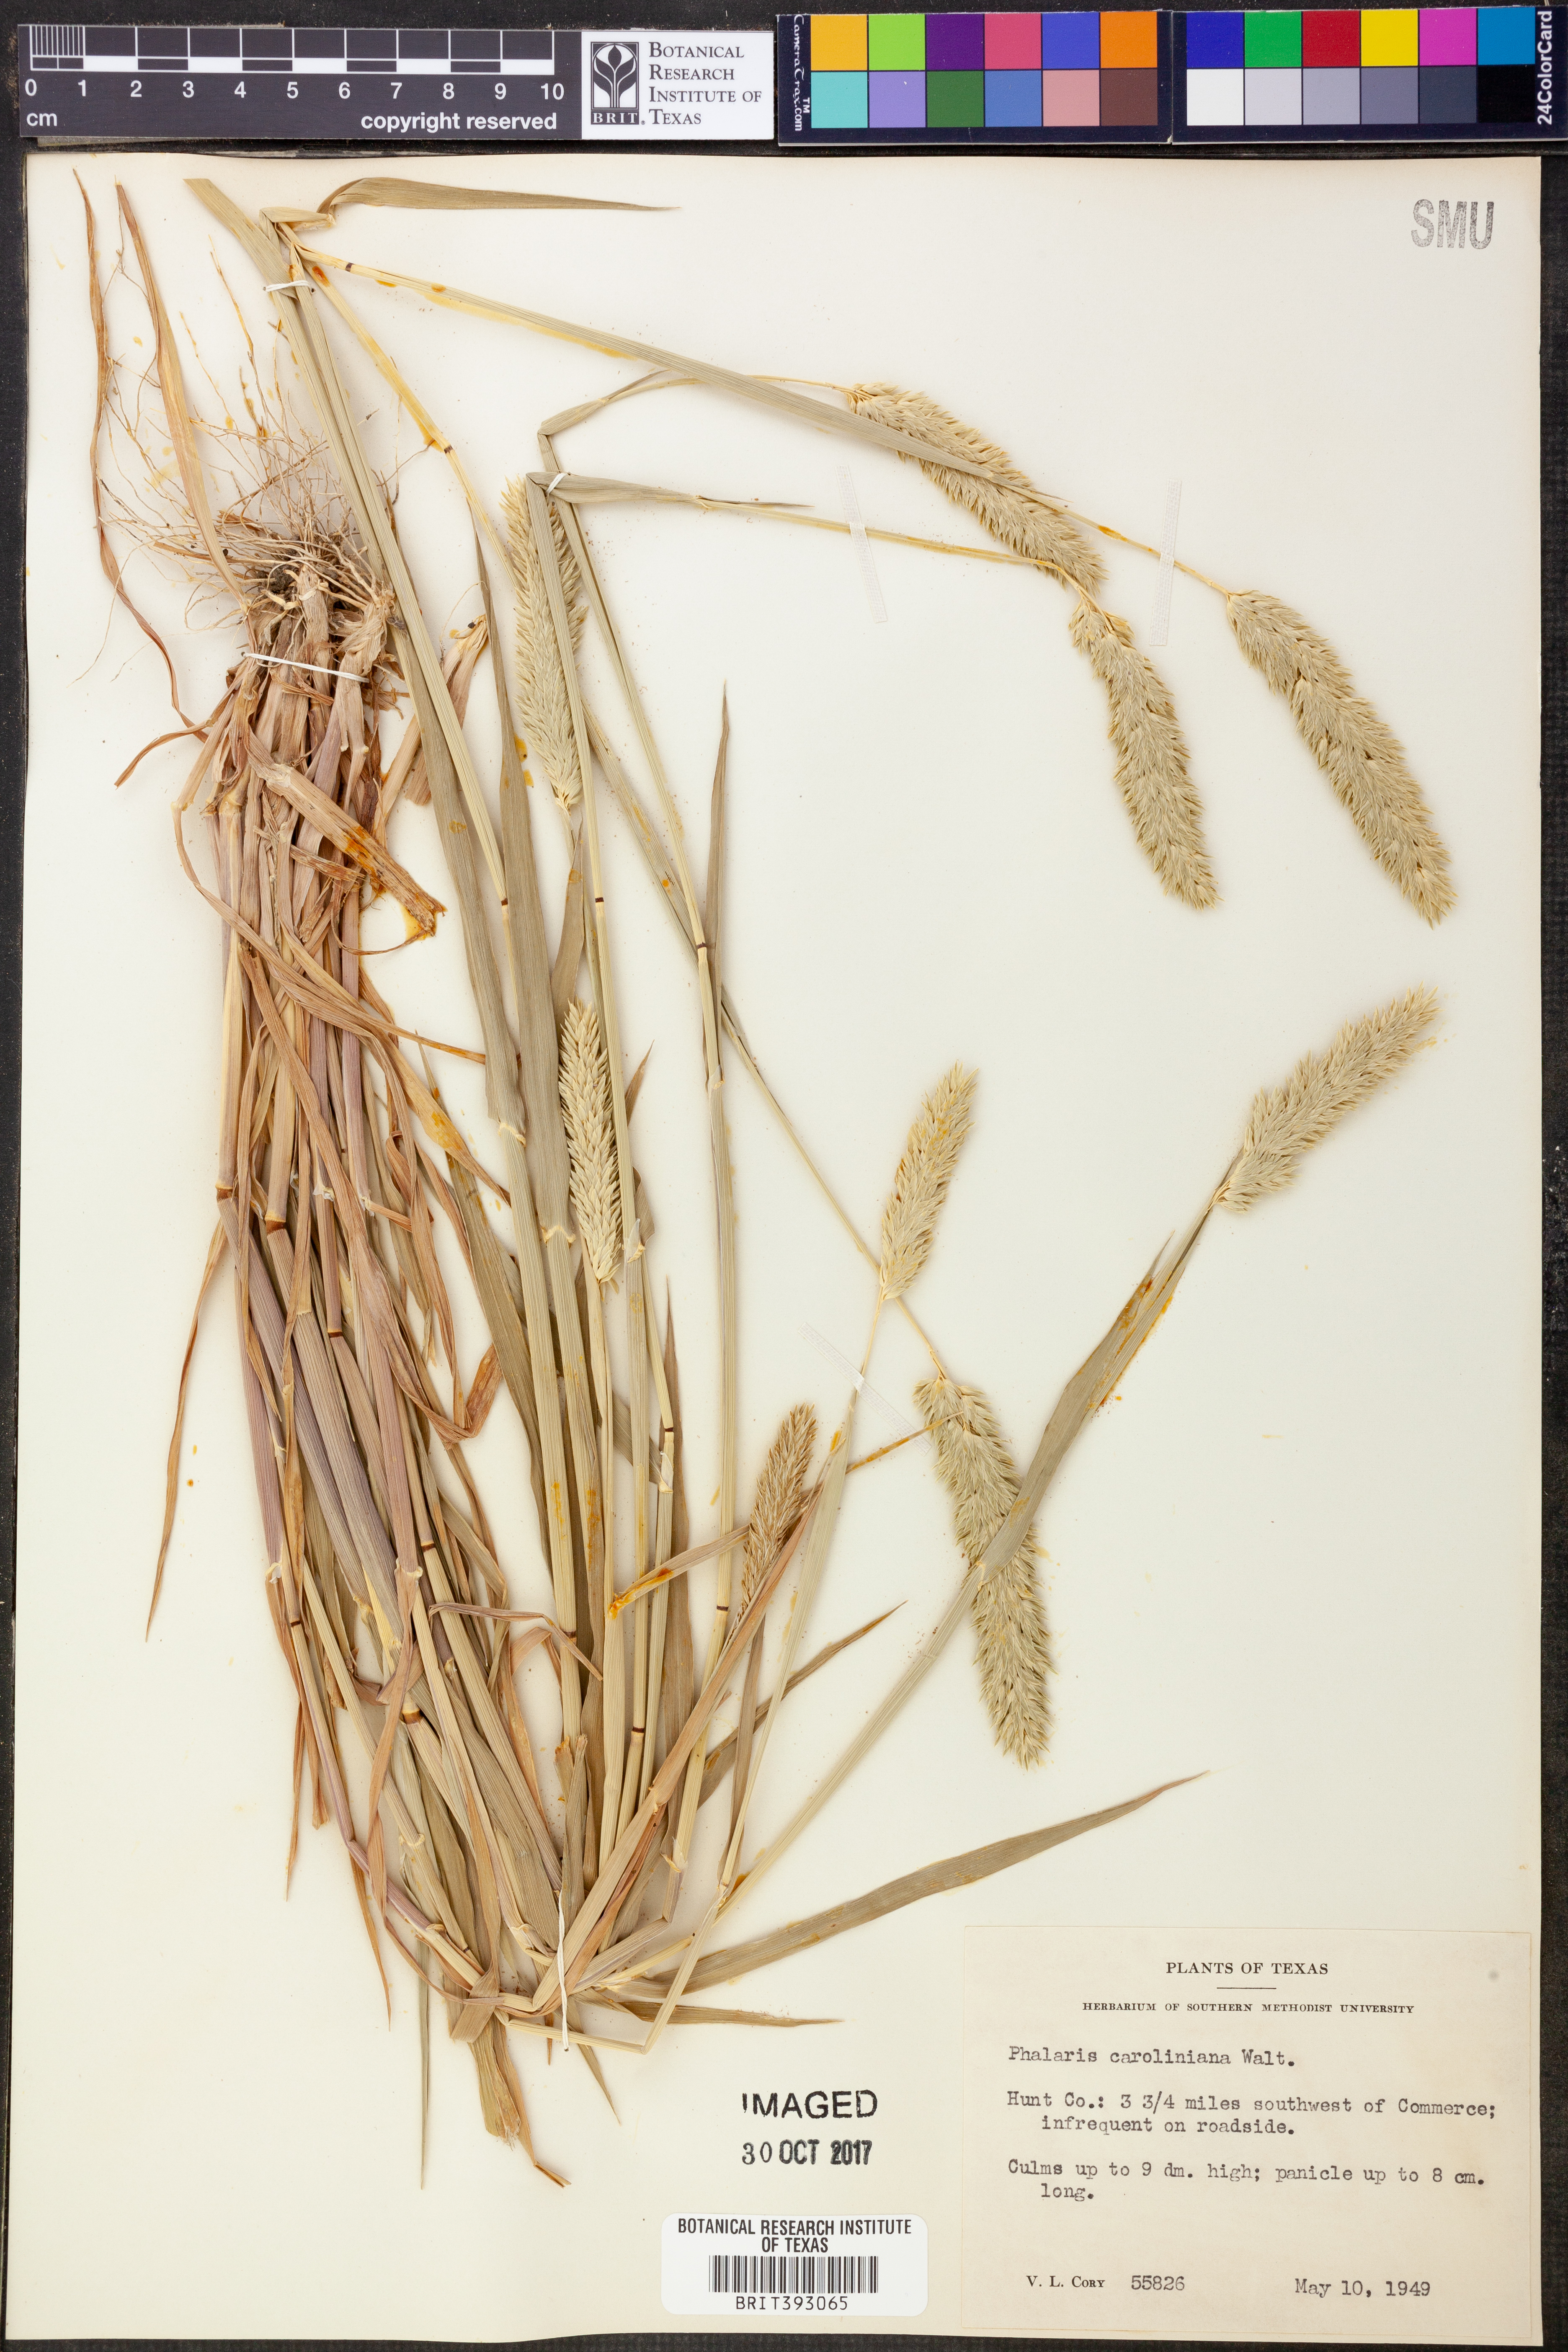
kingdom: Plantae
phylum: Tracheophyta
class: Liliopsida
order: Poales
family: Poaceae
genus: Phalaris
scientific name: Phalaris caroliniana
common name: May grass
